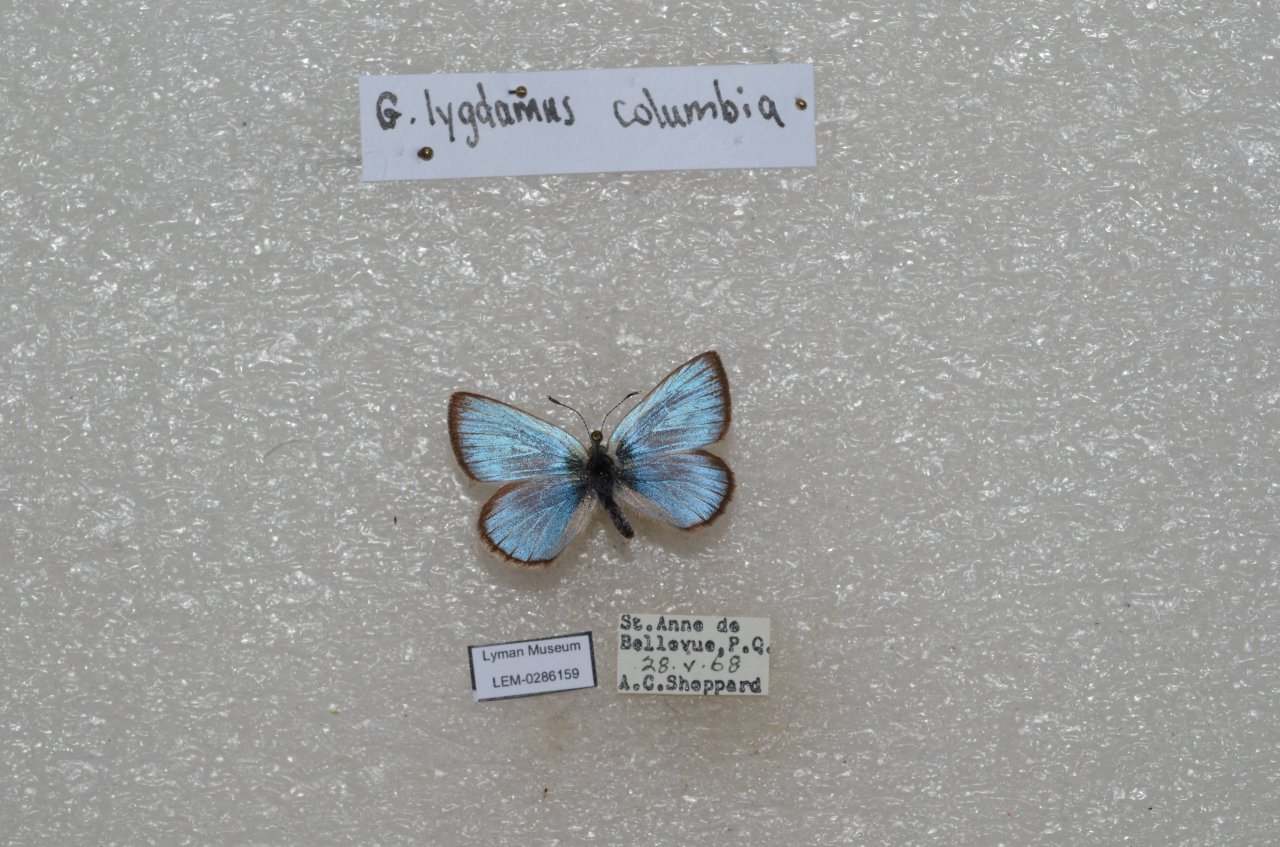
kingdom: Animalia
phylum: Arthropoda
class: Insecta
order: Lepidoptera
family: Lycaenidae
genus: Glaucopsyche
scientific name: Glaucopsyche lygdamus
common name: Silvery Blue
